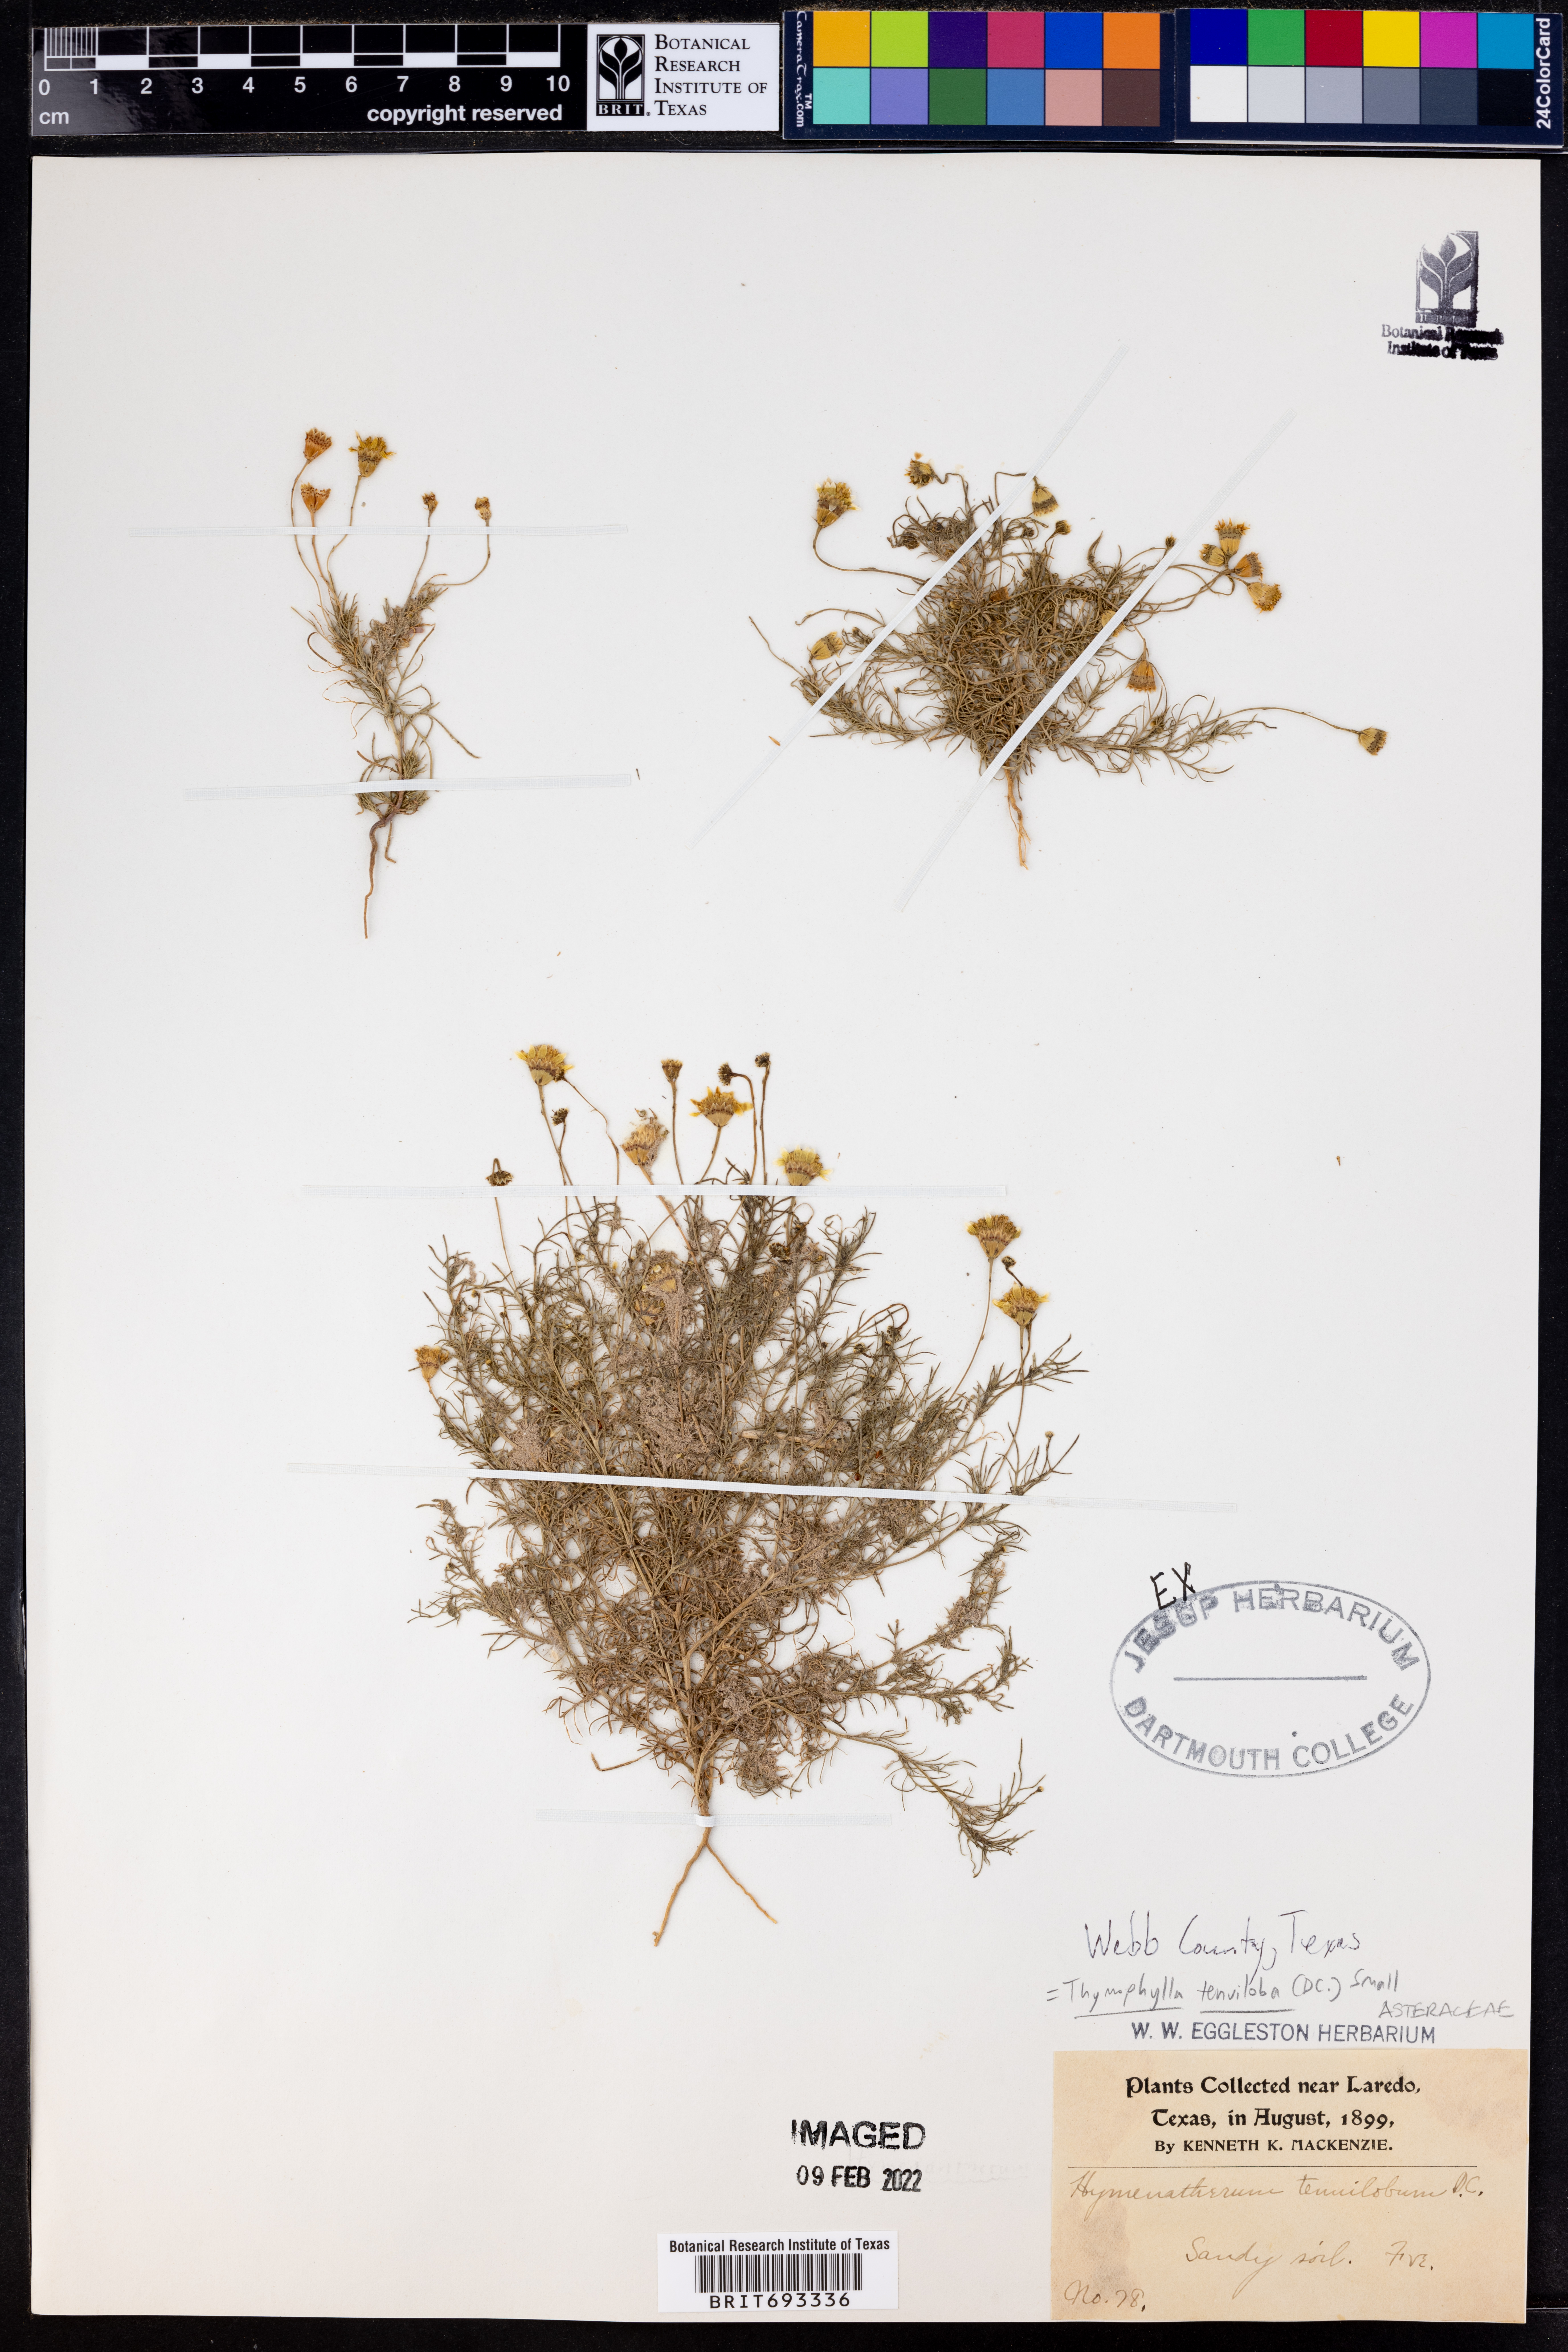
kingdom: Plantae
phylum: Tracheophyta
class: Magnoliopsida
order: Asterales
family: Asteraceae
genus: Thymophylla
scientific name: Thymophylla tenuiloba
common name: Dahlberg's daisy
